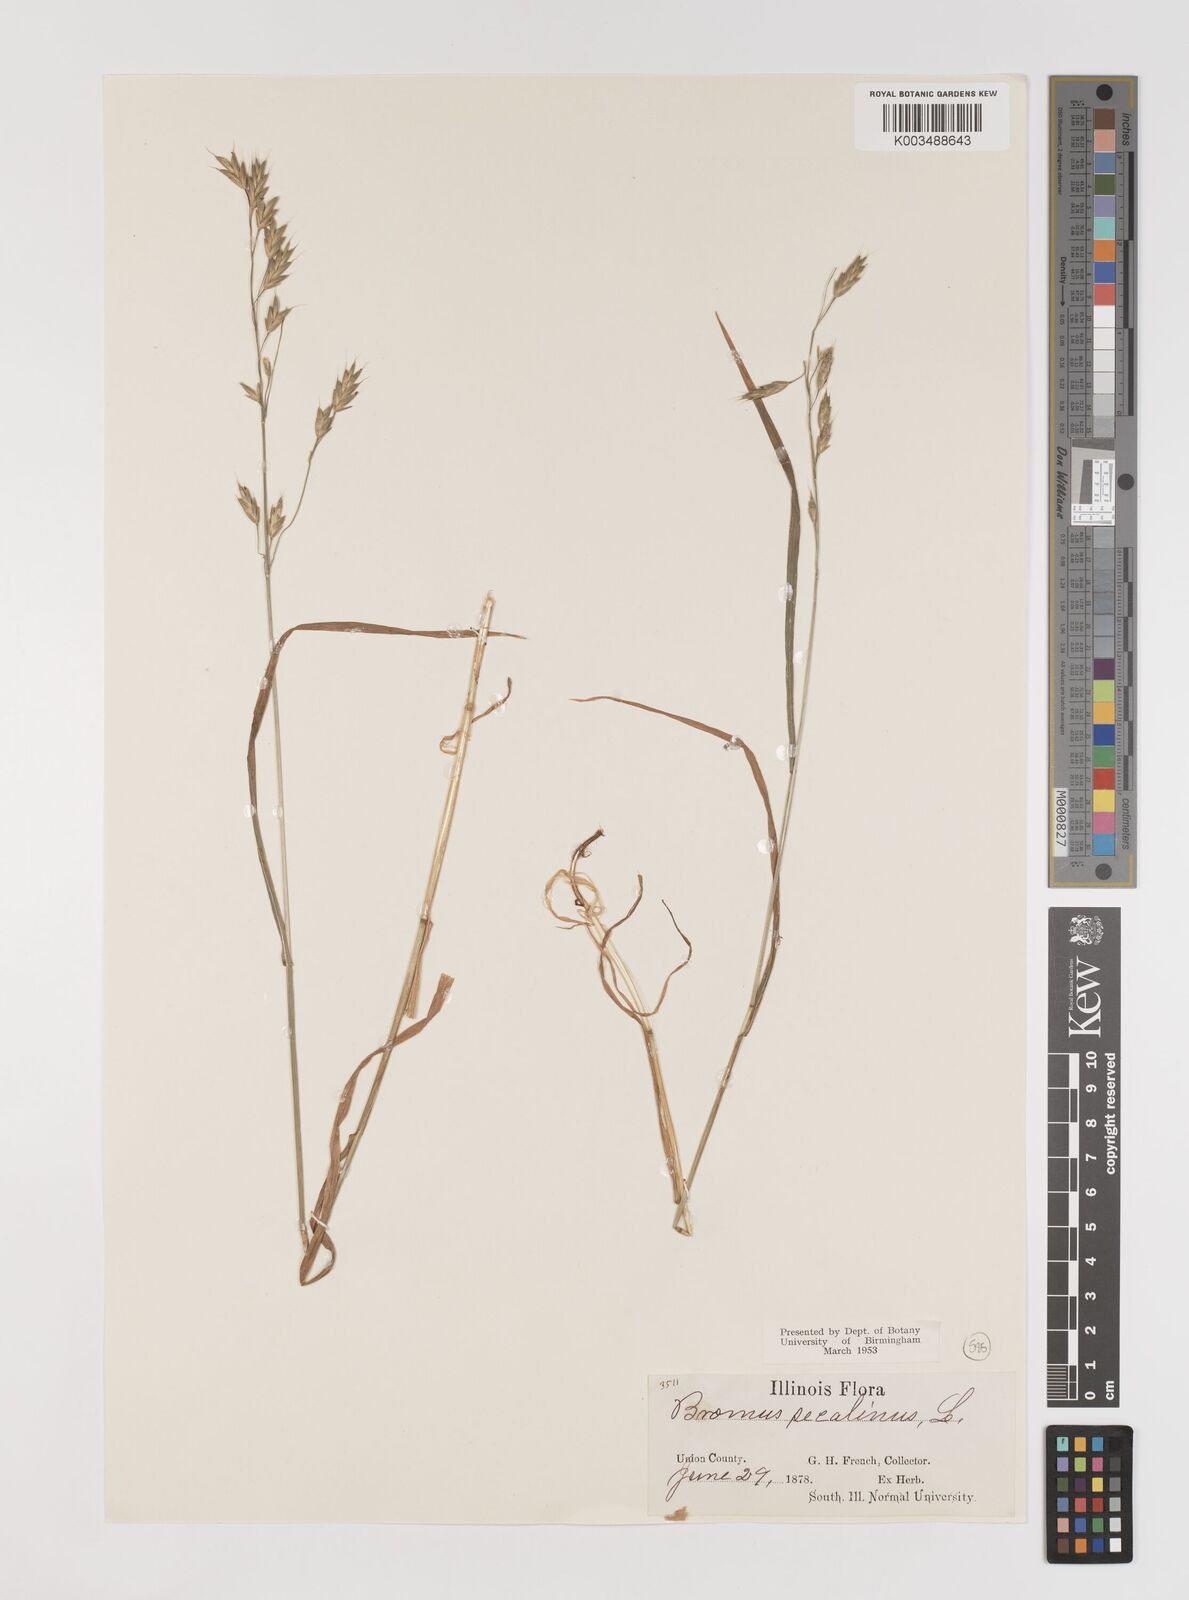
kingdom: Plantae
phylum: Tracheophyta
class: Liliopsida
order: Poales
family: Poaceae
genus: Bromus
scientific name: Bromus secalinus
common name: Rye brome
